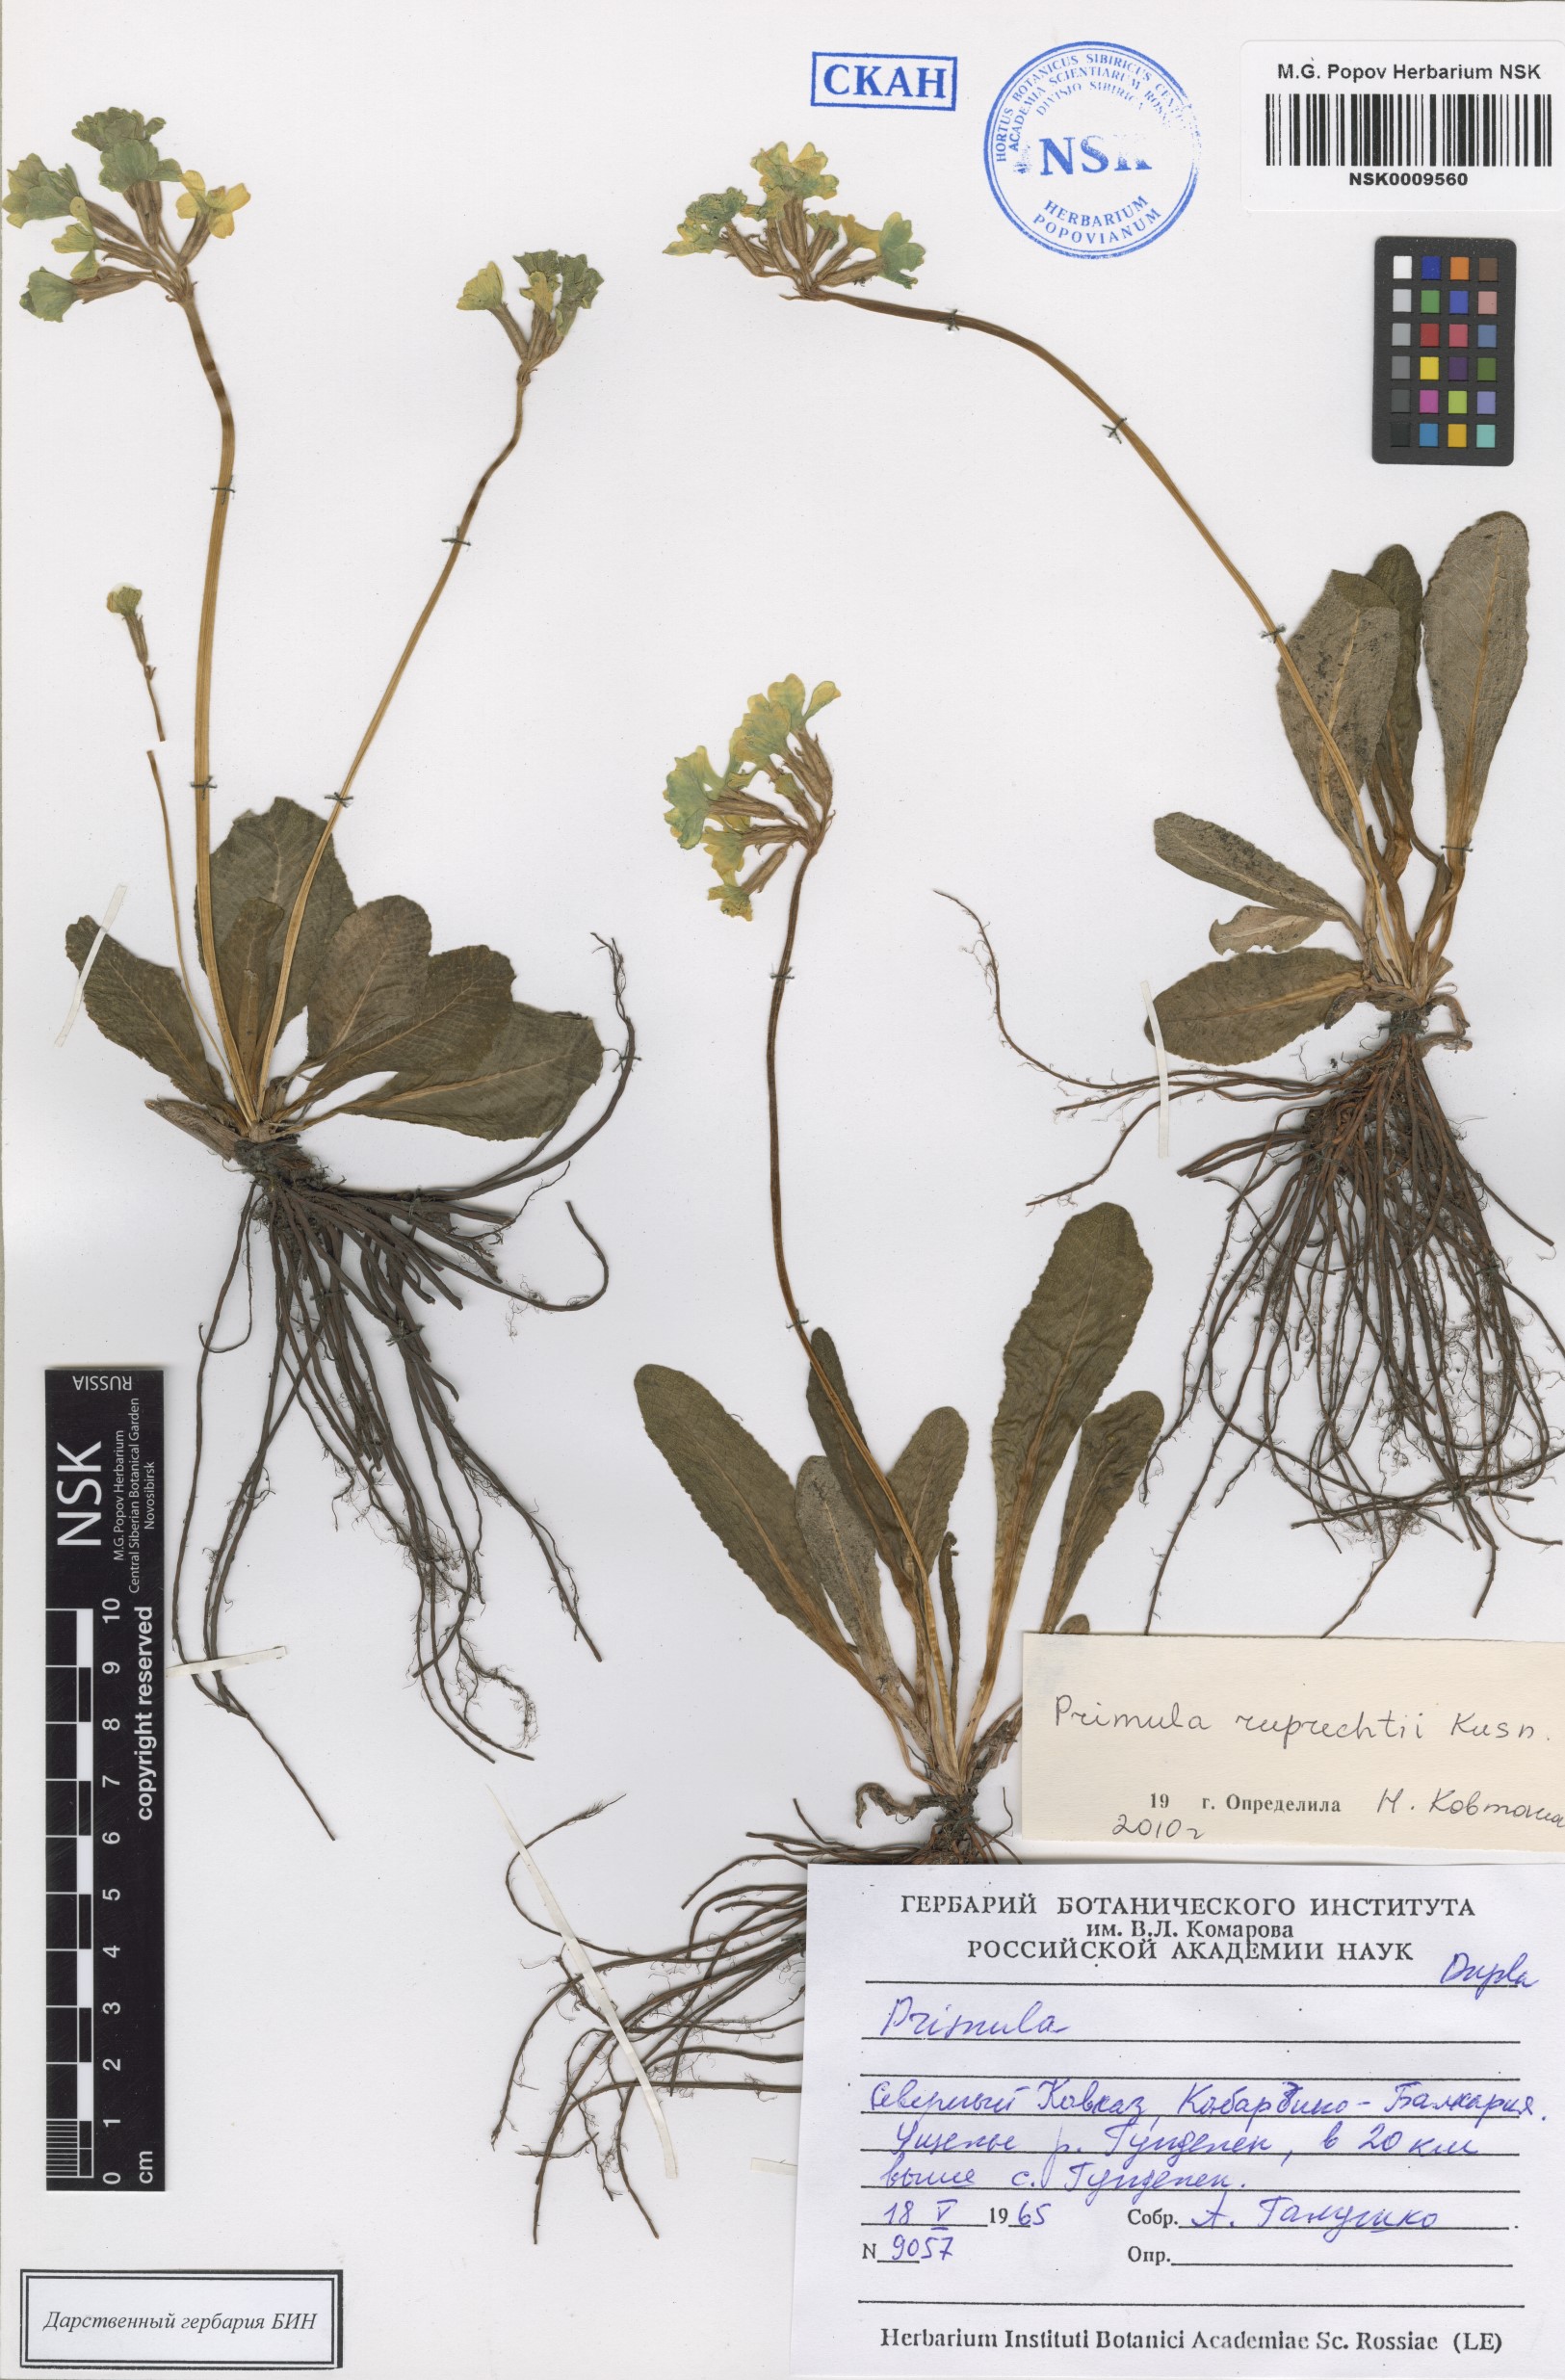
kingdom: Plantae
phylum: Tracheophyta
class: Magnoliopsida
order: Ericales
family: Primulaceae
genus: Primula
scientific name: Primula ruprechtii
